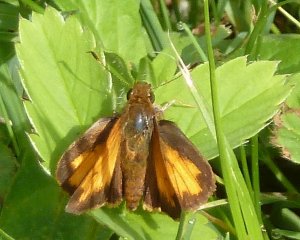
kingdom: Animalia
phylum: Arthropoda
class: Insecta
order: Lepidoptera
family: Hesperiidae
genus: Lon
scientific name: Lon hobomok
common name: Hobomok Skipper
